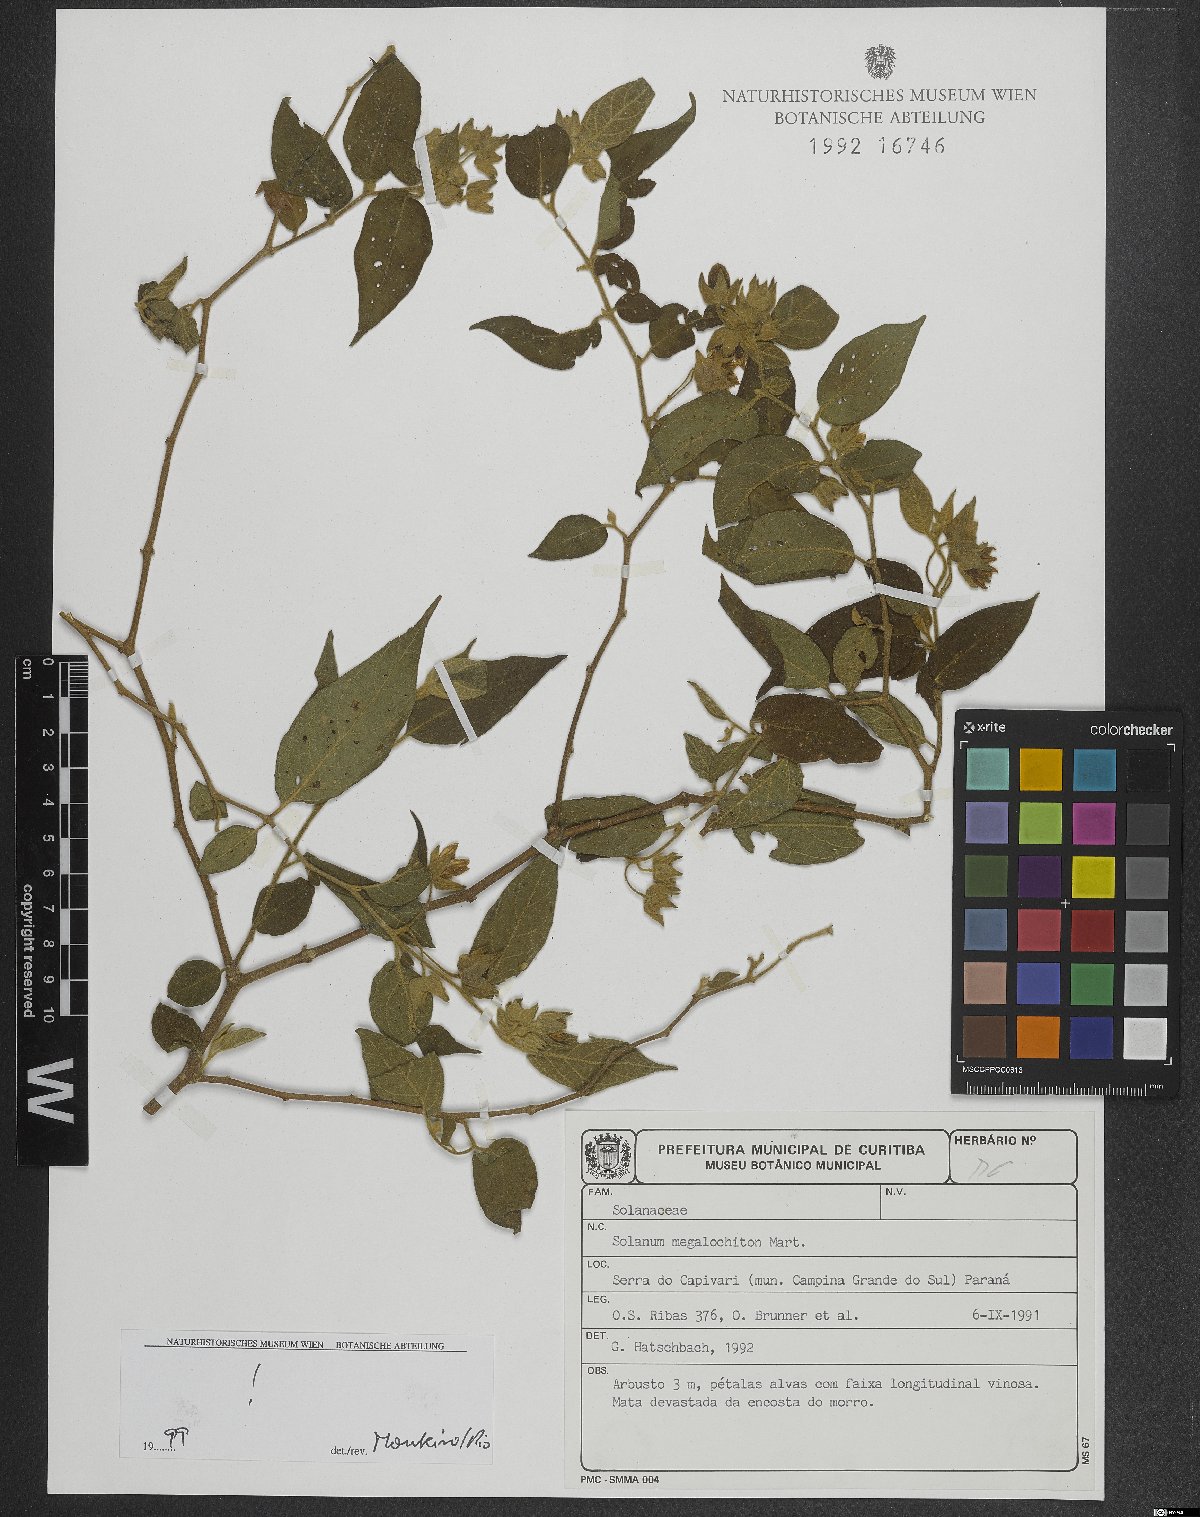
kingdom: Plantae
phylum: Tracheophyta
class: Magnoliopsida
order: Solanales
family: Solanaceae
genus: Solanum
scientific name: Solanum megalochiton
